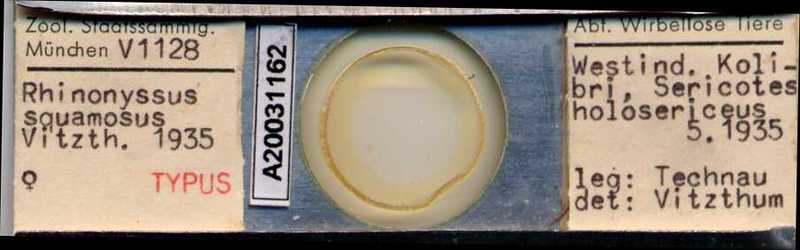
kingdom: Animalia
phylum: Arthropoda
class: Arachnida
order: Mesostigmata
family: Rhinonyssidae
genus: Tinaminyssus
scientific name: Tinaminyssus squamosus
